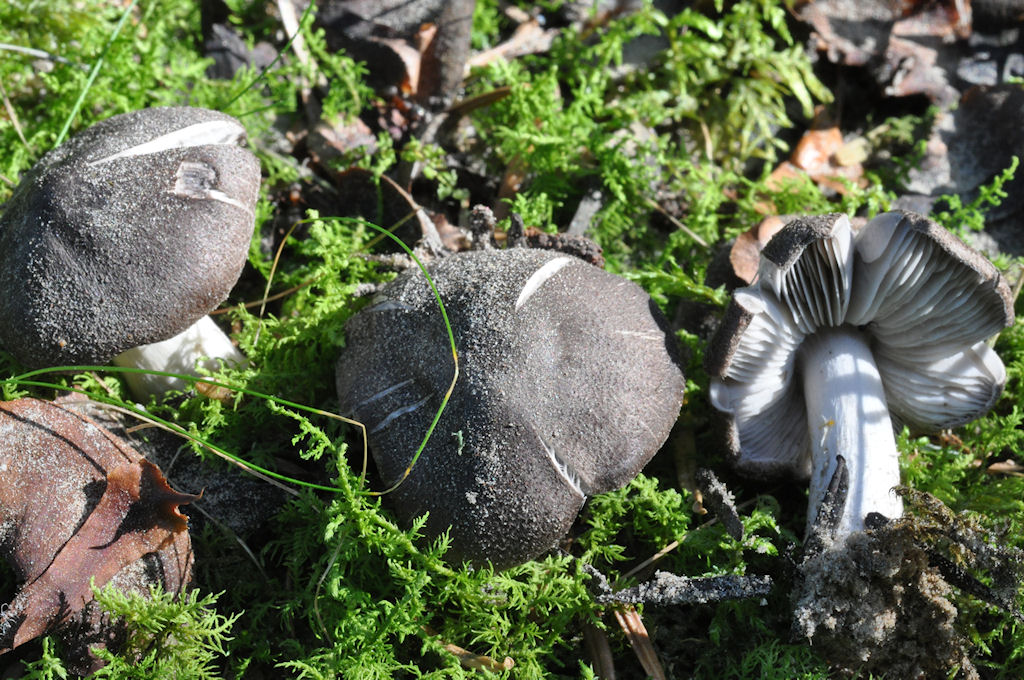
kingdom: Fungi
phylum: Basidiomycota
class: Agaricomycetes
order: Agaricales
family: Tricholomataceae
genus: Tricholoma
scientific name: Tricholoma terreum
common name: jordfarvet ridderhat
